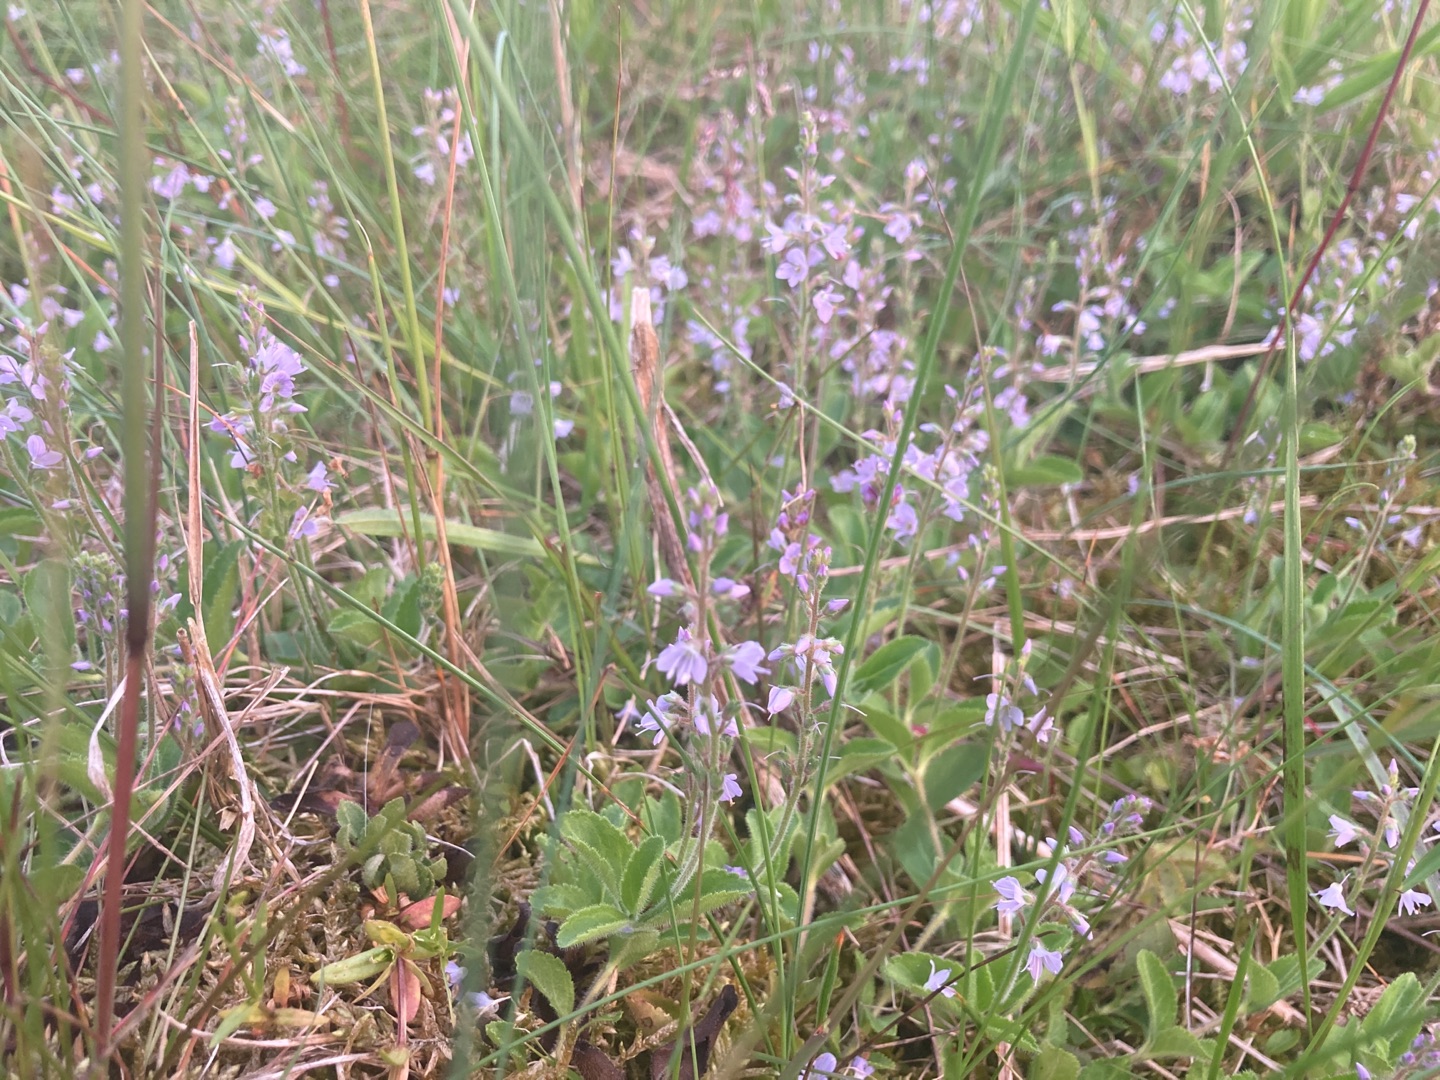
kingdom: Plantae
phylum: Tracheophyta
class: Magnoliopsida
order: Lamiales
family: Plantaginaceae
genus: Veronica
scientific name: Veronica officinalis
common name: Læge-ærenpris
